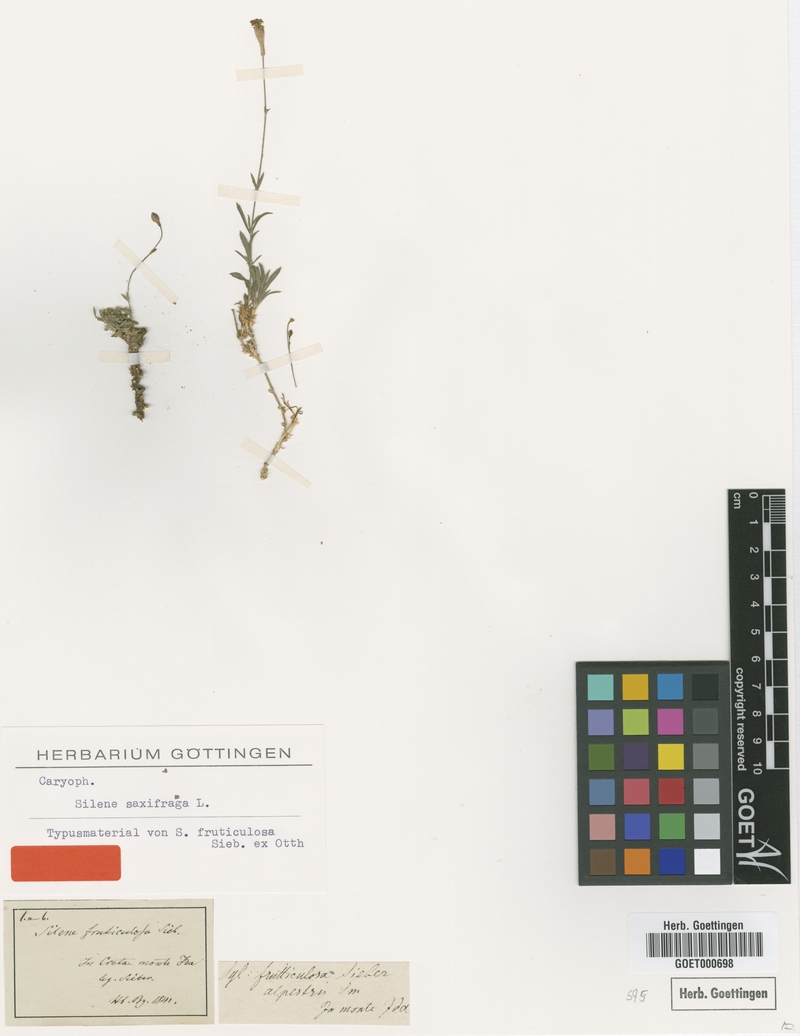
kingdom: Plantae
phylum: Tracheophyta
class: Magnoliopsida
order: Caryophyllales
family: Caryophyllaceae
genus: Silene
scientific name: Silene saxifraga
